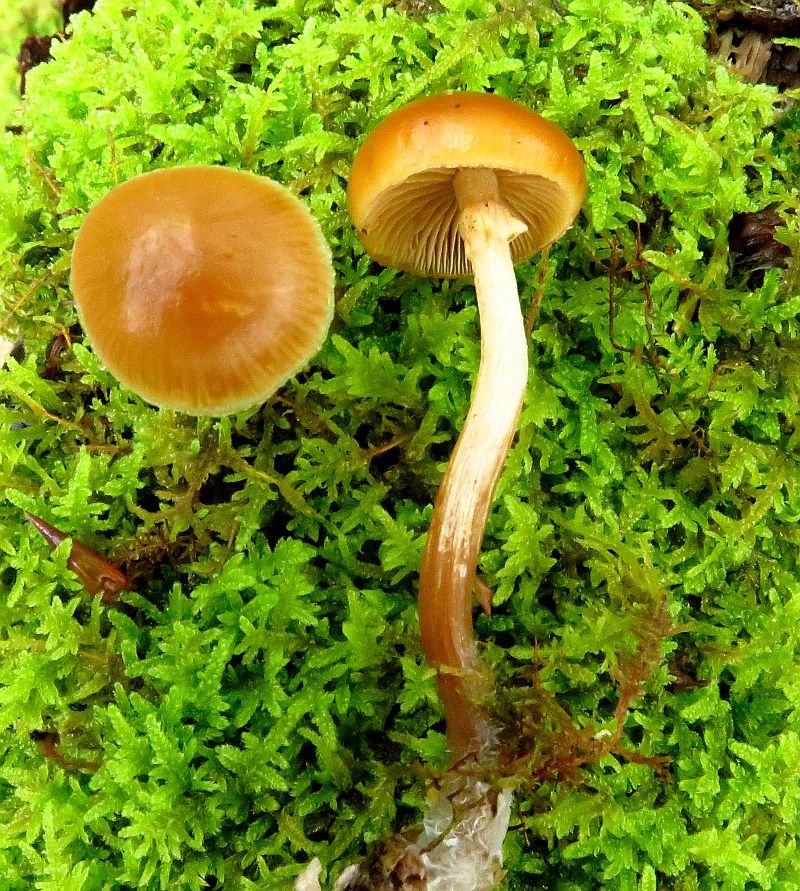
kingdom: Fungi
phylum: Basidiomycota
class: Agaricomycetes
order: Agaricales
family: Hymenogastraceae
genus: Galerina
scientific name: Galerina marginata
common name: randbæltet hjelmhat
